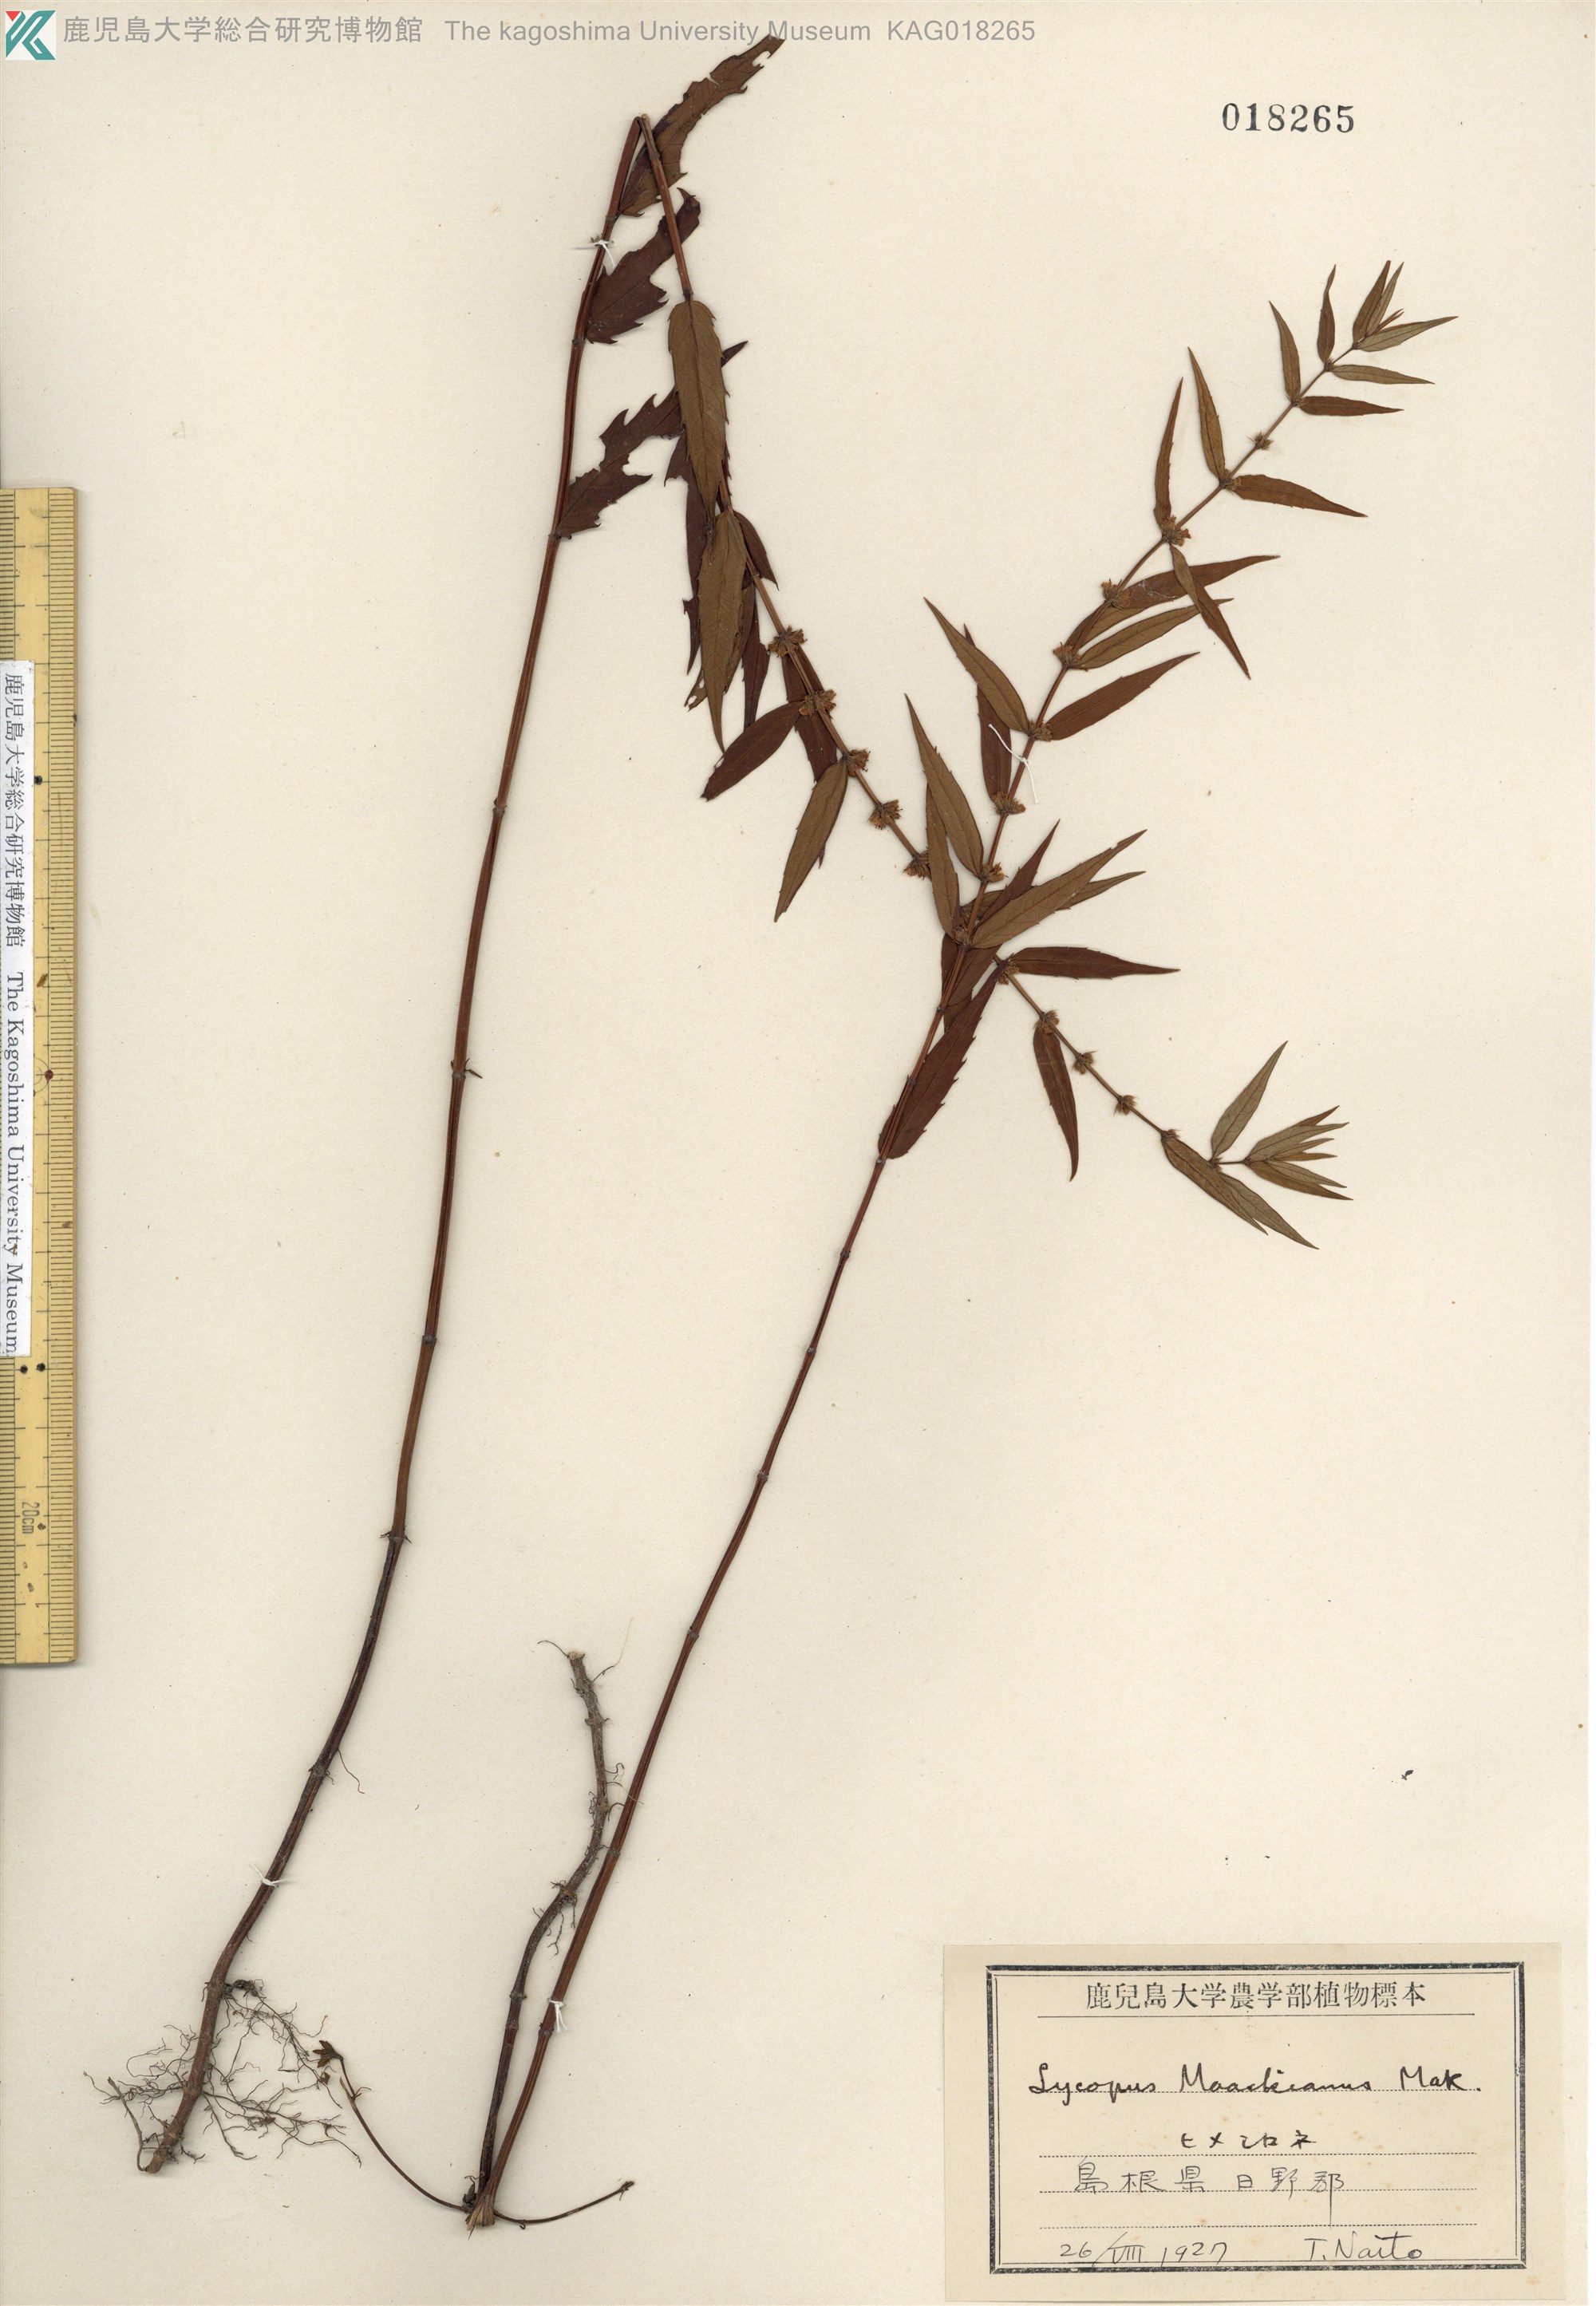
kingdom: Plantae
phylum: Tracheophyta
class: Magnoliopsida
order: Lamiales
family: Lamiaceae
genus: Lycopus
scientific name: Lycopus lucidus
